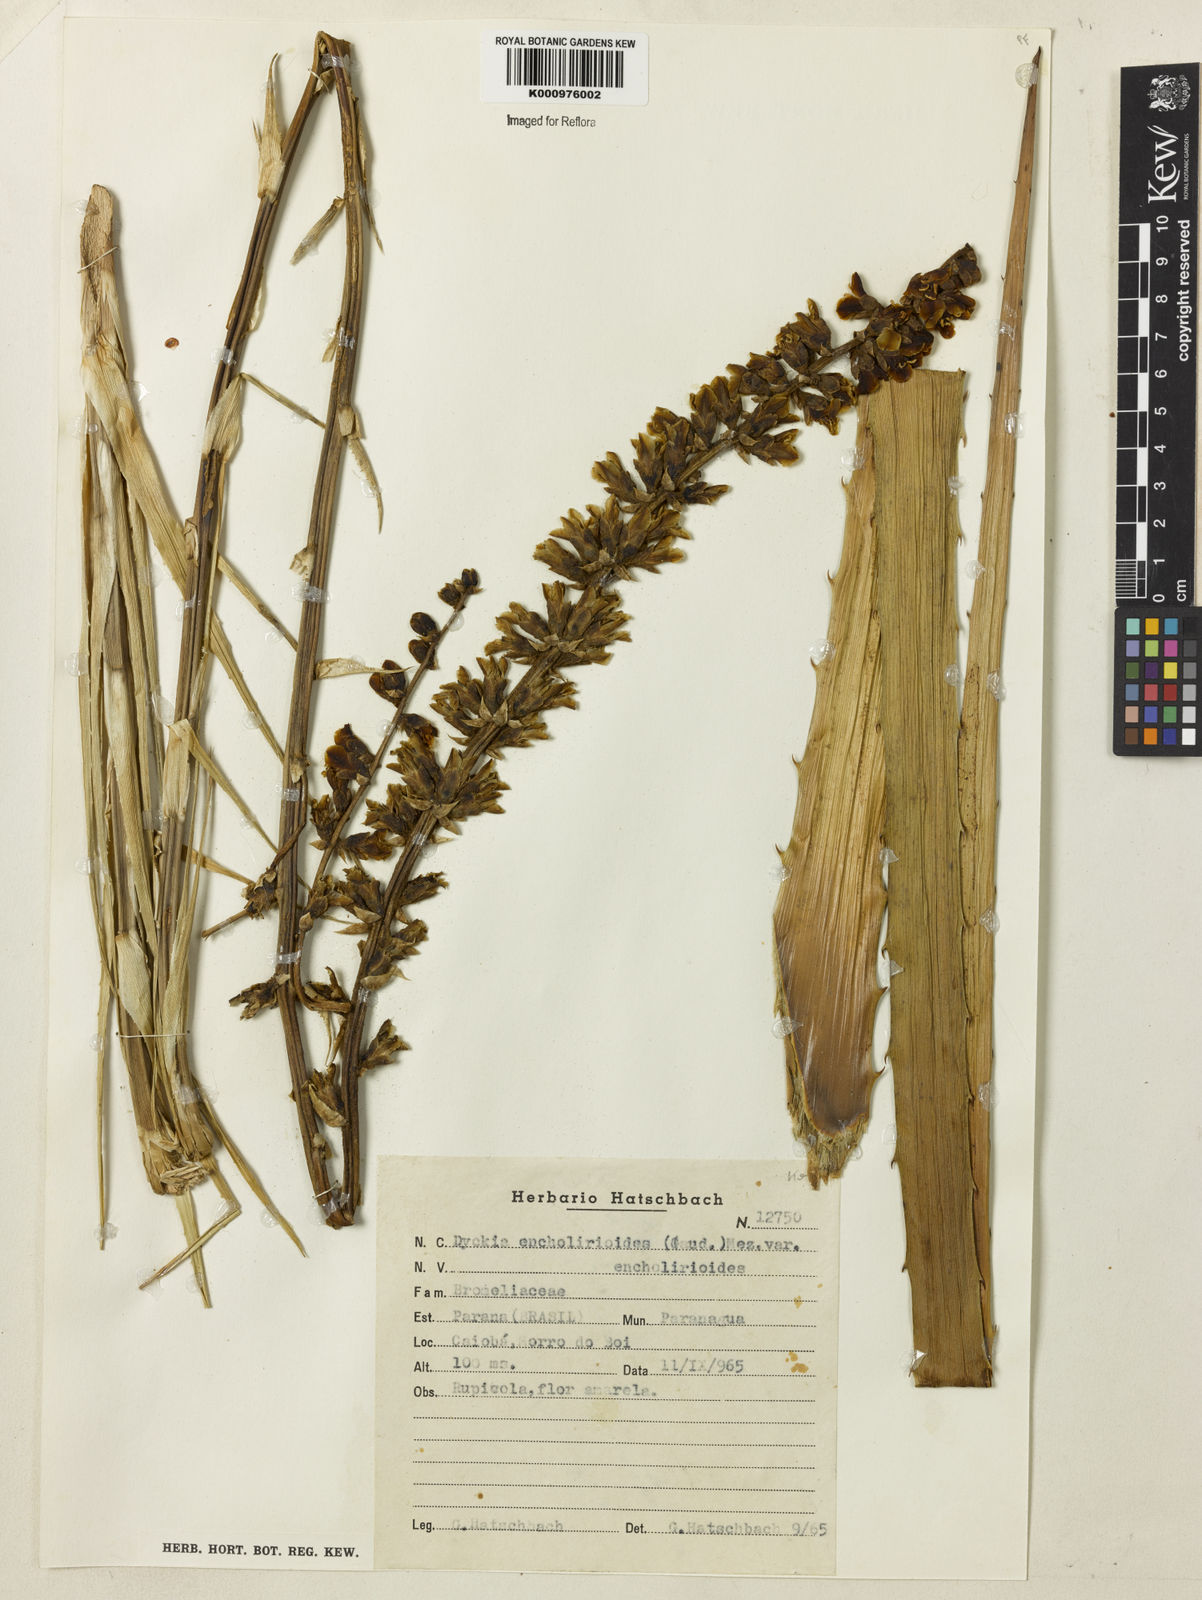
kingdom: Plantae
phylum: Tracheophyta
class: Liliopsida
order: Poales
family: Bromeliaceae
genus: Dyckia
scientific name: Dyckia encholirioides
